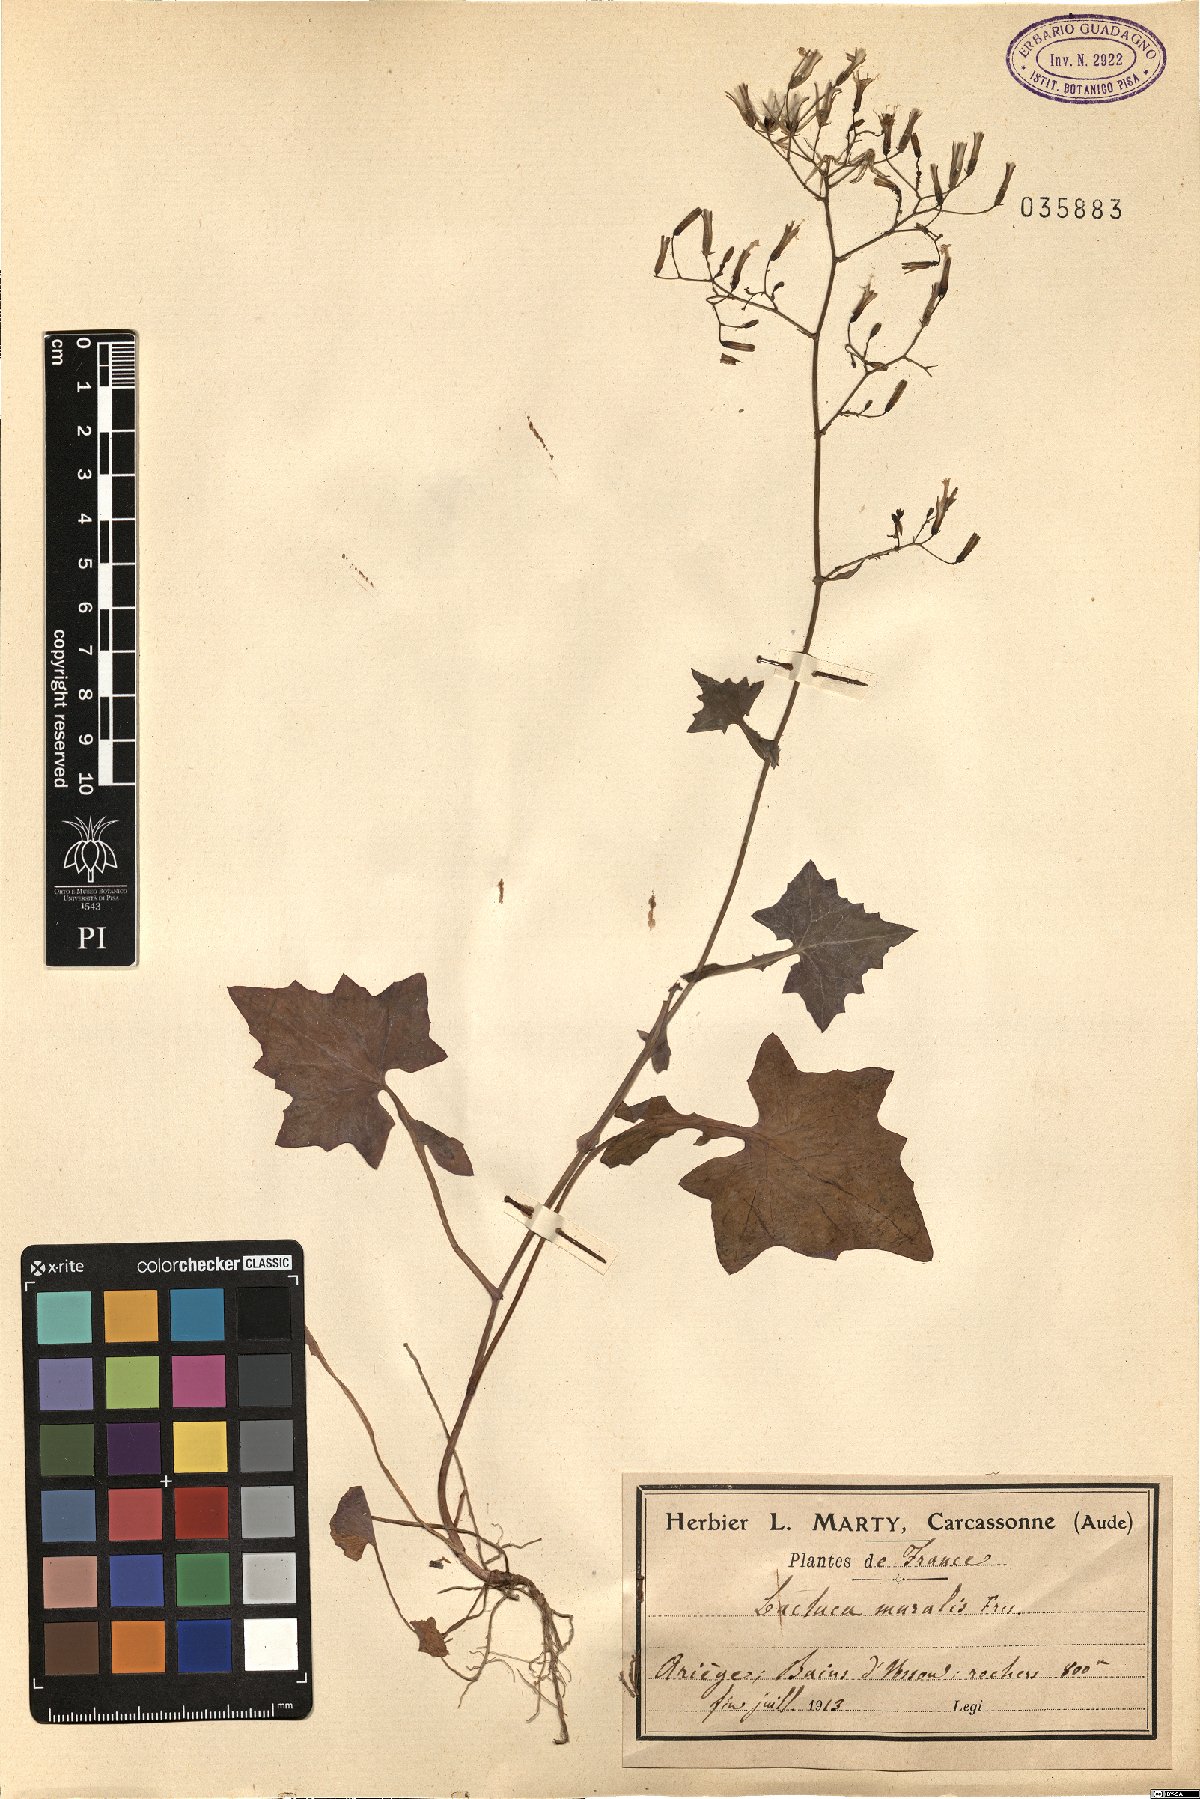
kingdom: Plantae
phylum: Tracheophyta
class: Magnoliopsida
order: Asterales
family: Asteraceae
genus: Mycelis
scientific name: Mycelis muralis
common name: Wall lettuce
